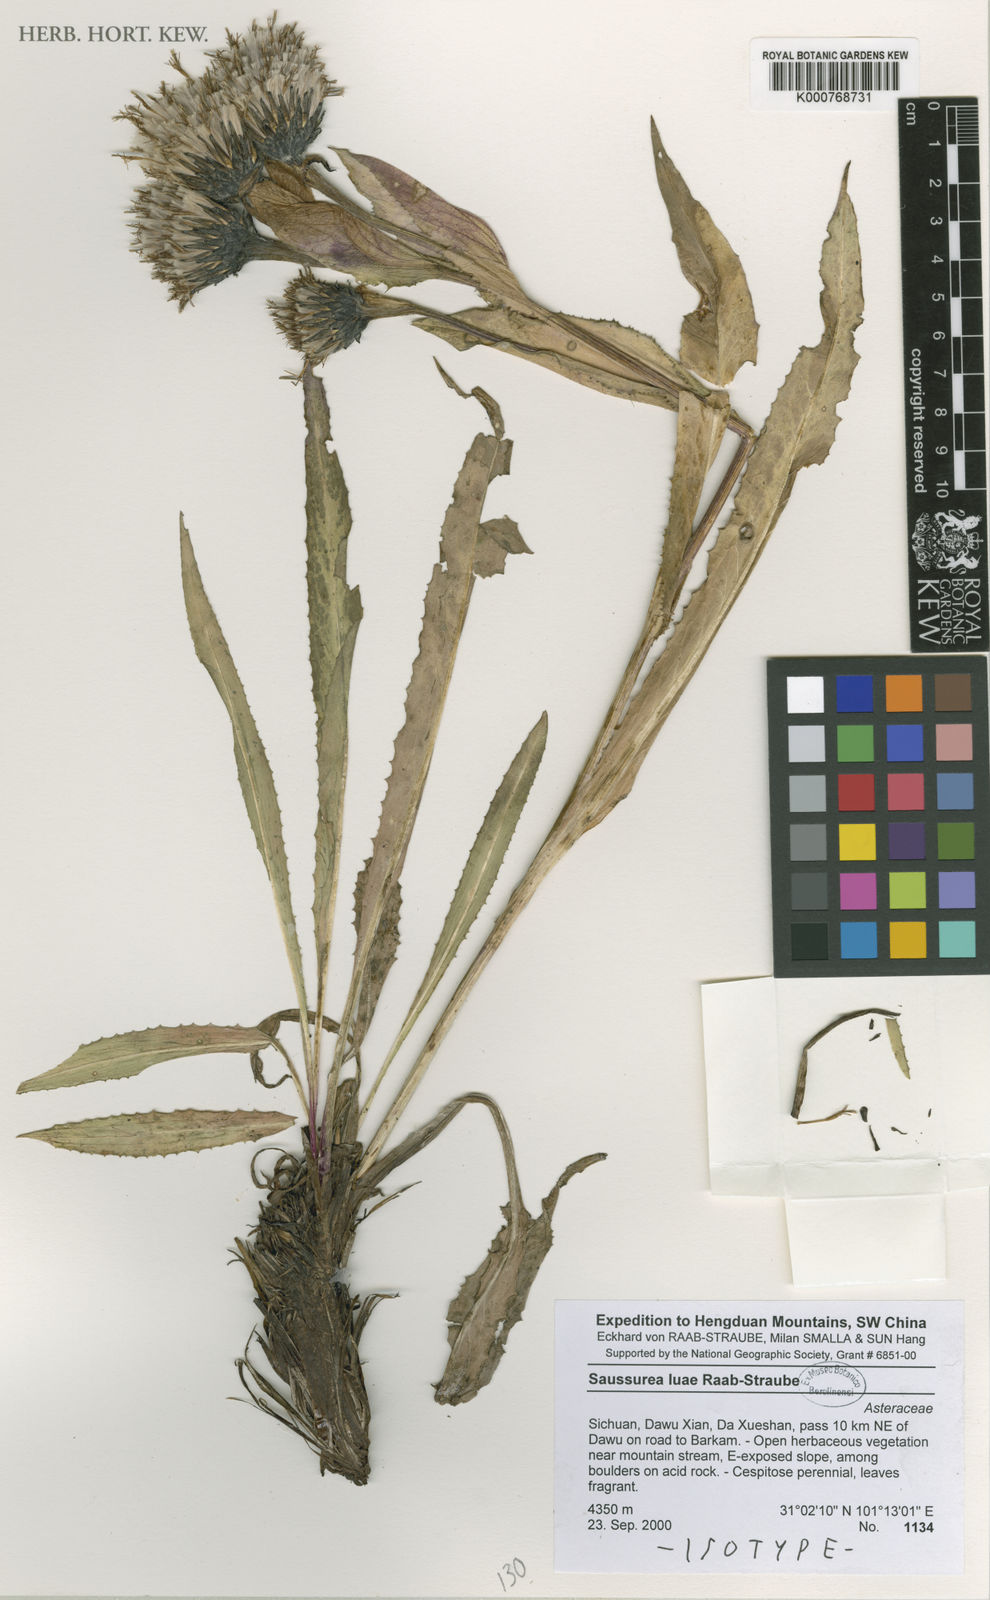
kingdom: Plantae
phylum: Tracheophyta
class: Magnoliopsida
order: Asterales
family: Asteraceae
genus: Saussurea
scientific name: Saussurea luae
